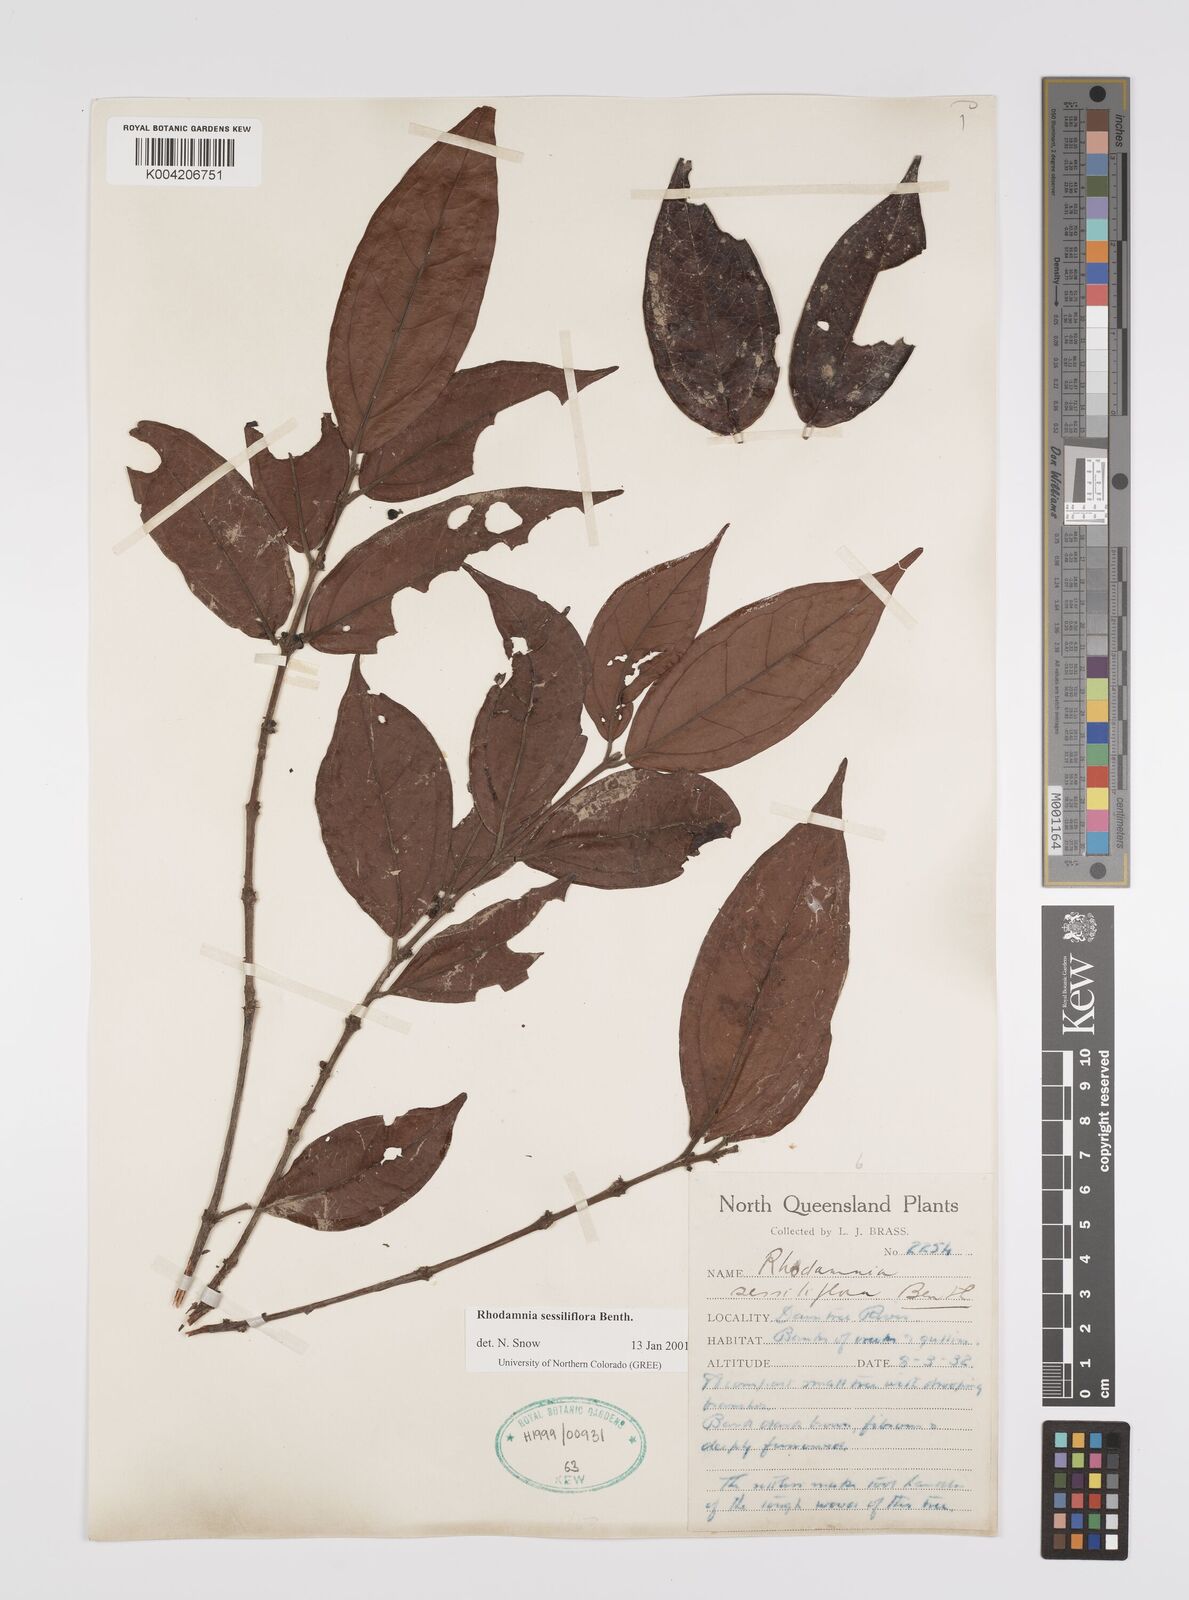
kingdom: Plantae
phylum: Tracheophyta
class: Magnoliopsida
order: Myrtales
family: Myrtaceae
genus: Rhodamnia
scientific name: Rhodamnia sessiliflora
